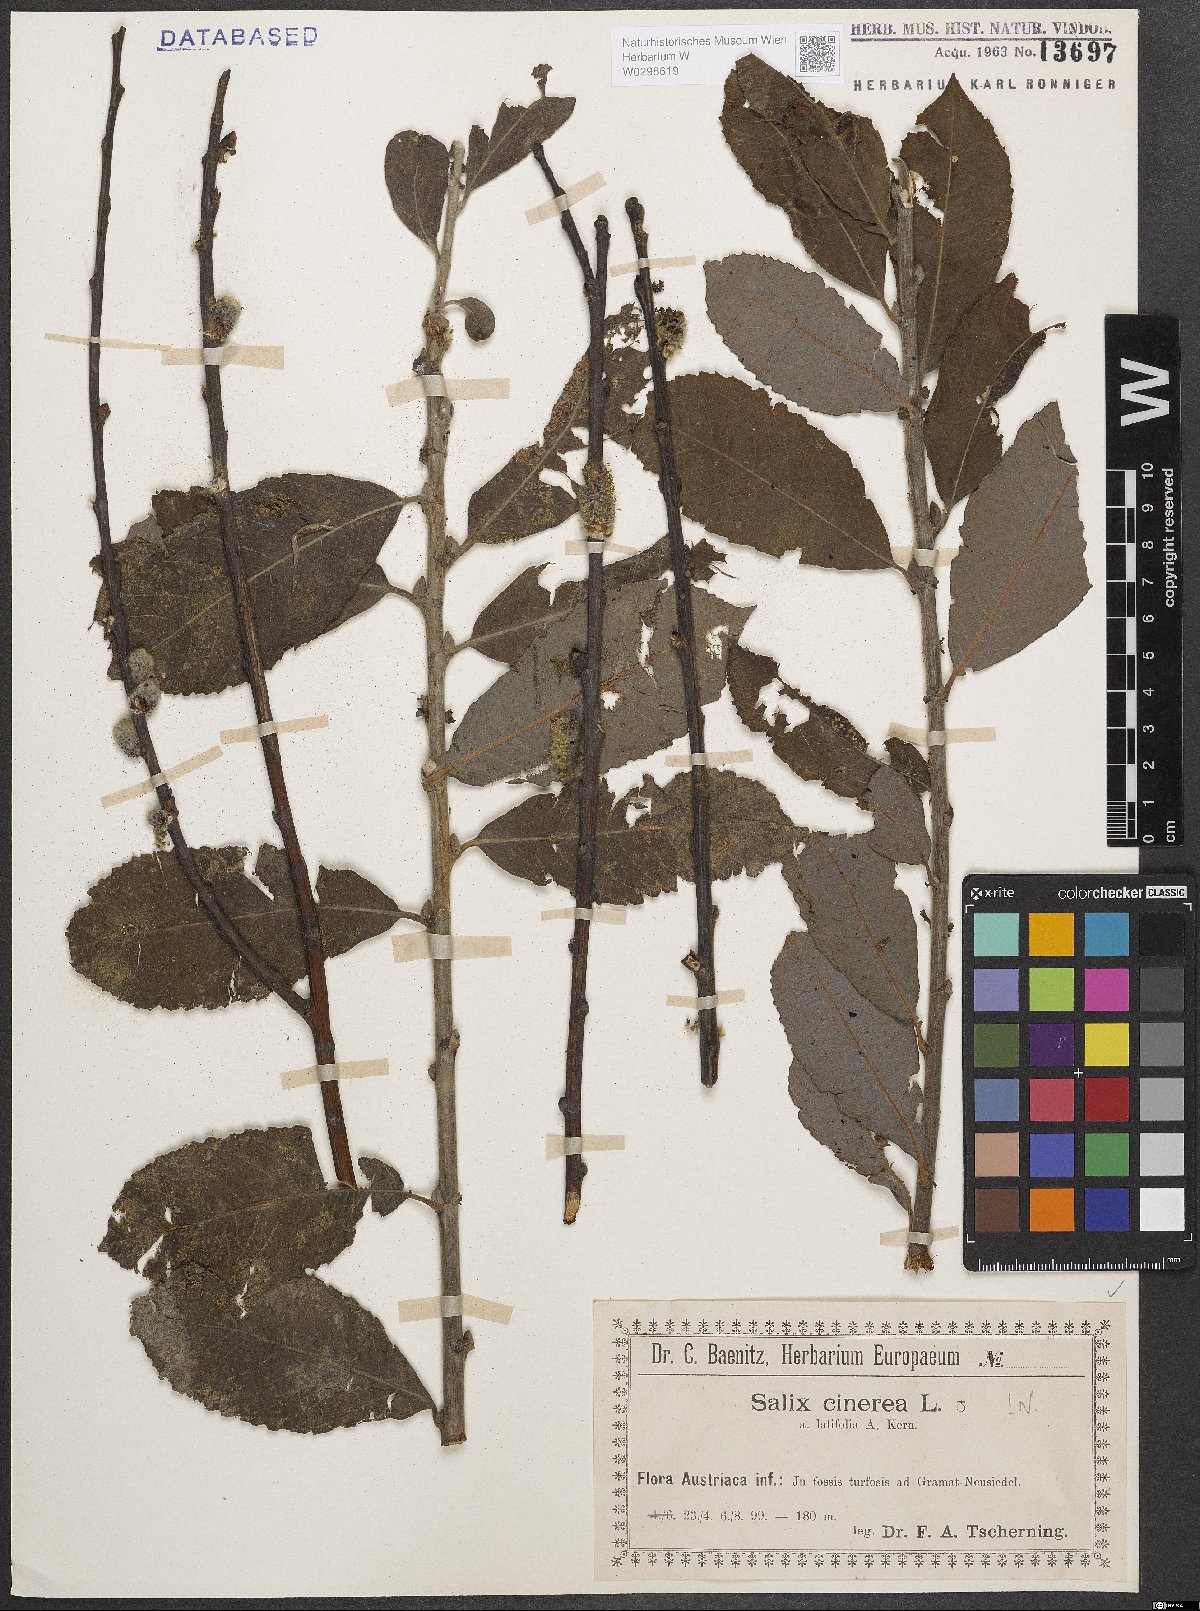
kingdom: Plantae
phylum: Tracheophyta
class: Magnoliopsida
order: Malpighiales
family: Salicaceae
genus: Salix
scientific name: Salix cinerea
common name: Common sallow
